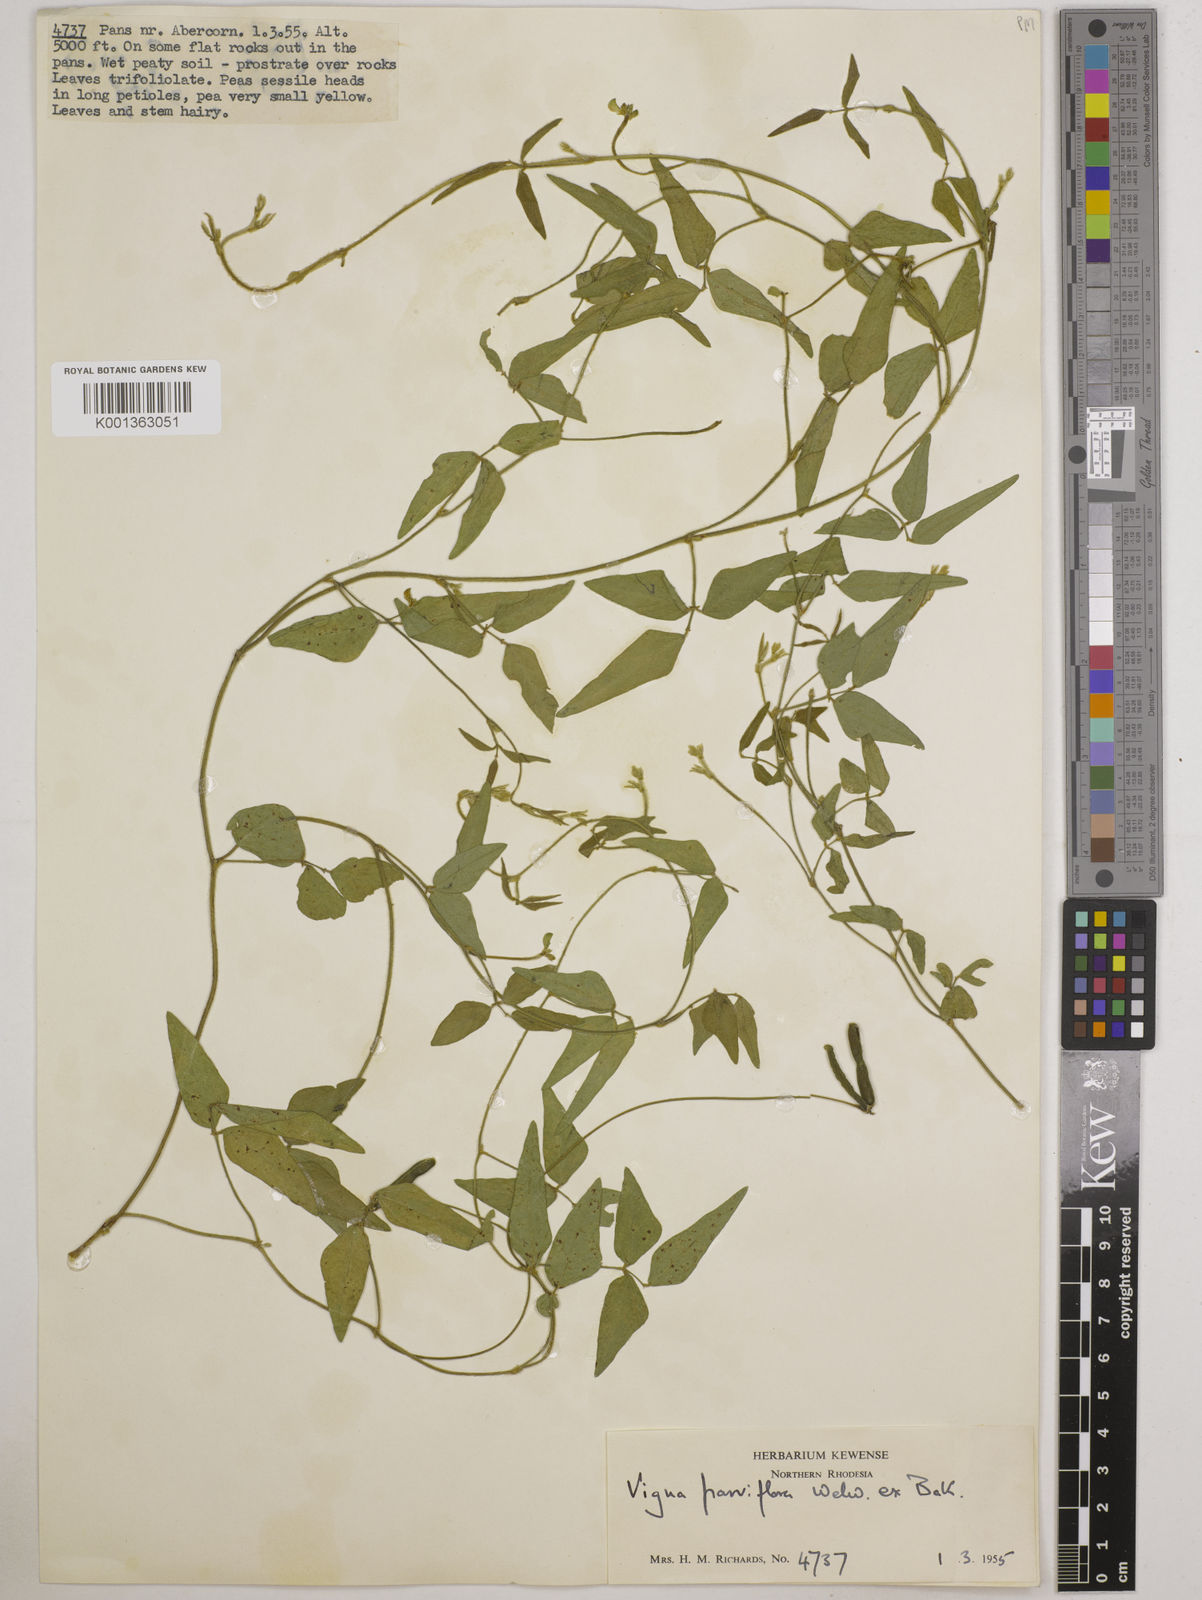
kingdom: Plantae
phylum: Tracheophyta
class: Magnoliopsida
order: Fabales
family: Fabaceae
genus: Vigna
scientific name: Vigna
